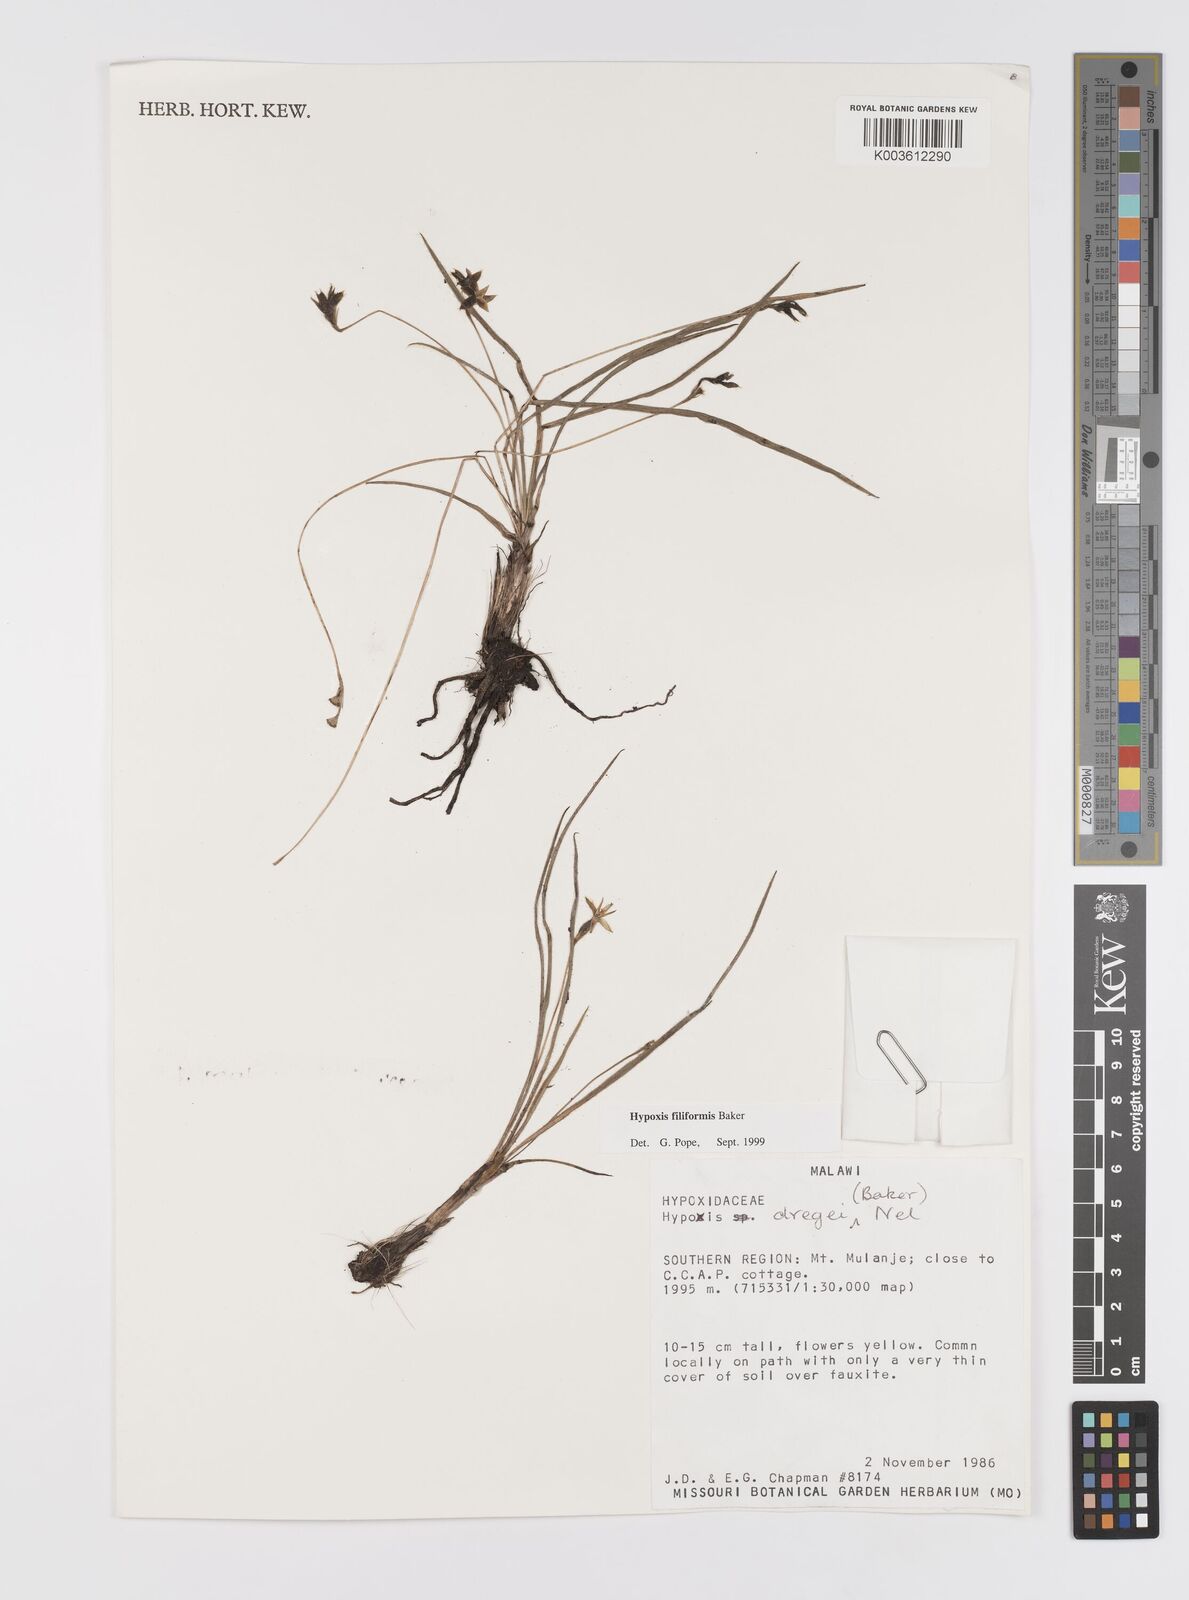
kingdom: Plantae
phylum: Tracheophyta
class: Liliopsida
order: Asparagales
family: Hypoxidaceae
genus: Hypoxis
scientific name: Hypoxis filiformis
